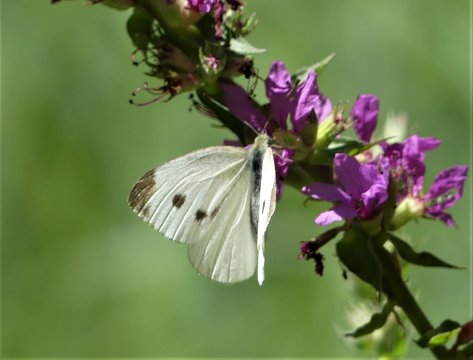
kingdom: Animalia
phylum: Arthropoda
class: Insecta
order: Lepidoptera
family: Pieridae
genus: Pieris
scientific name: Pieris rapae
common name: Cabbage White
